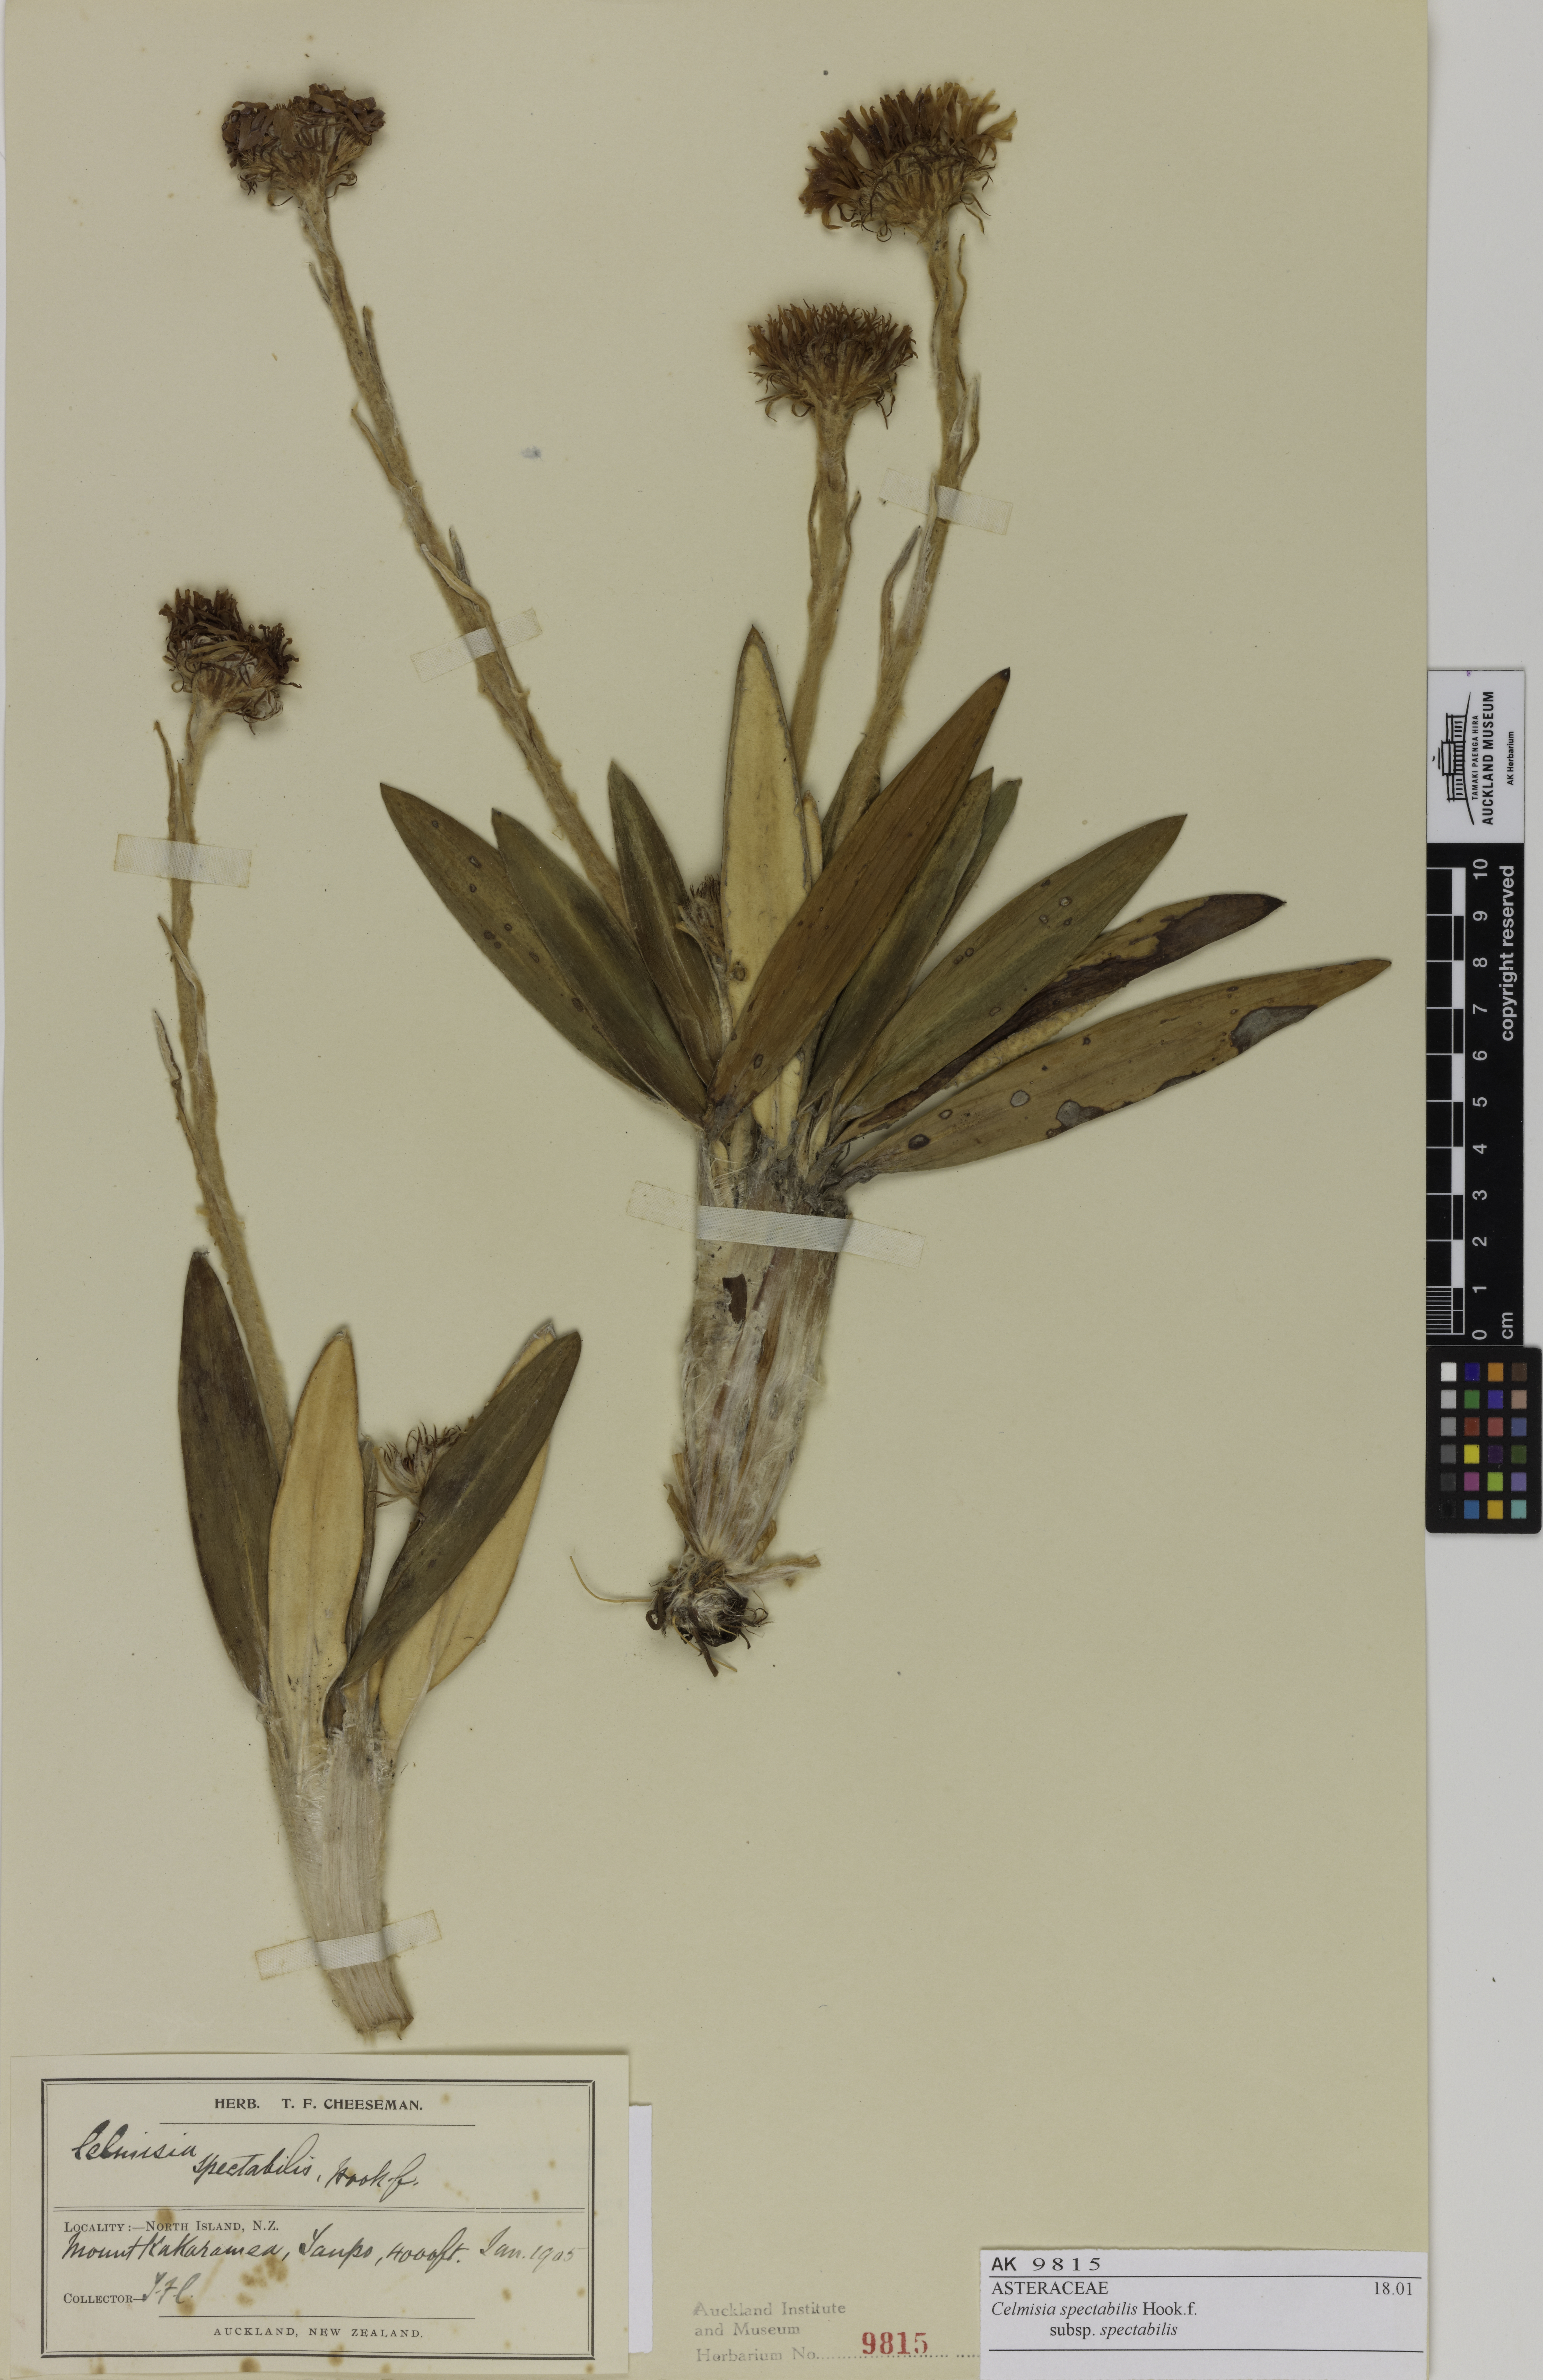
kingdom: Plantae
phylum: Tracheophyta
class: Magnoliopsida
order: Asterales
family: Asteraceae
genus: Celmisia
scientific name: Celmisia spectabilis
